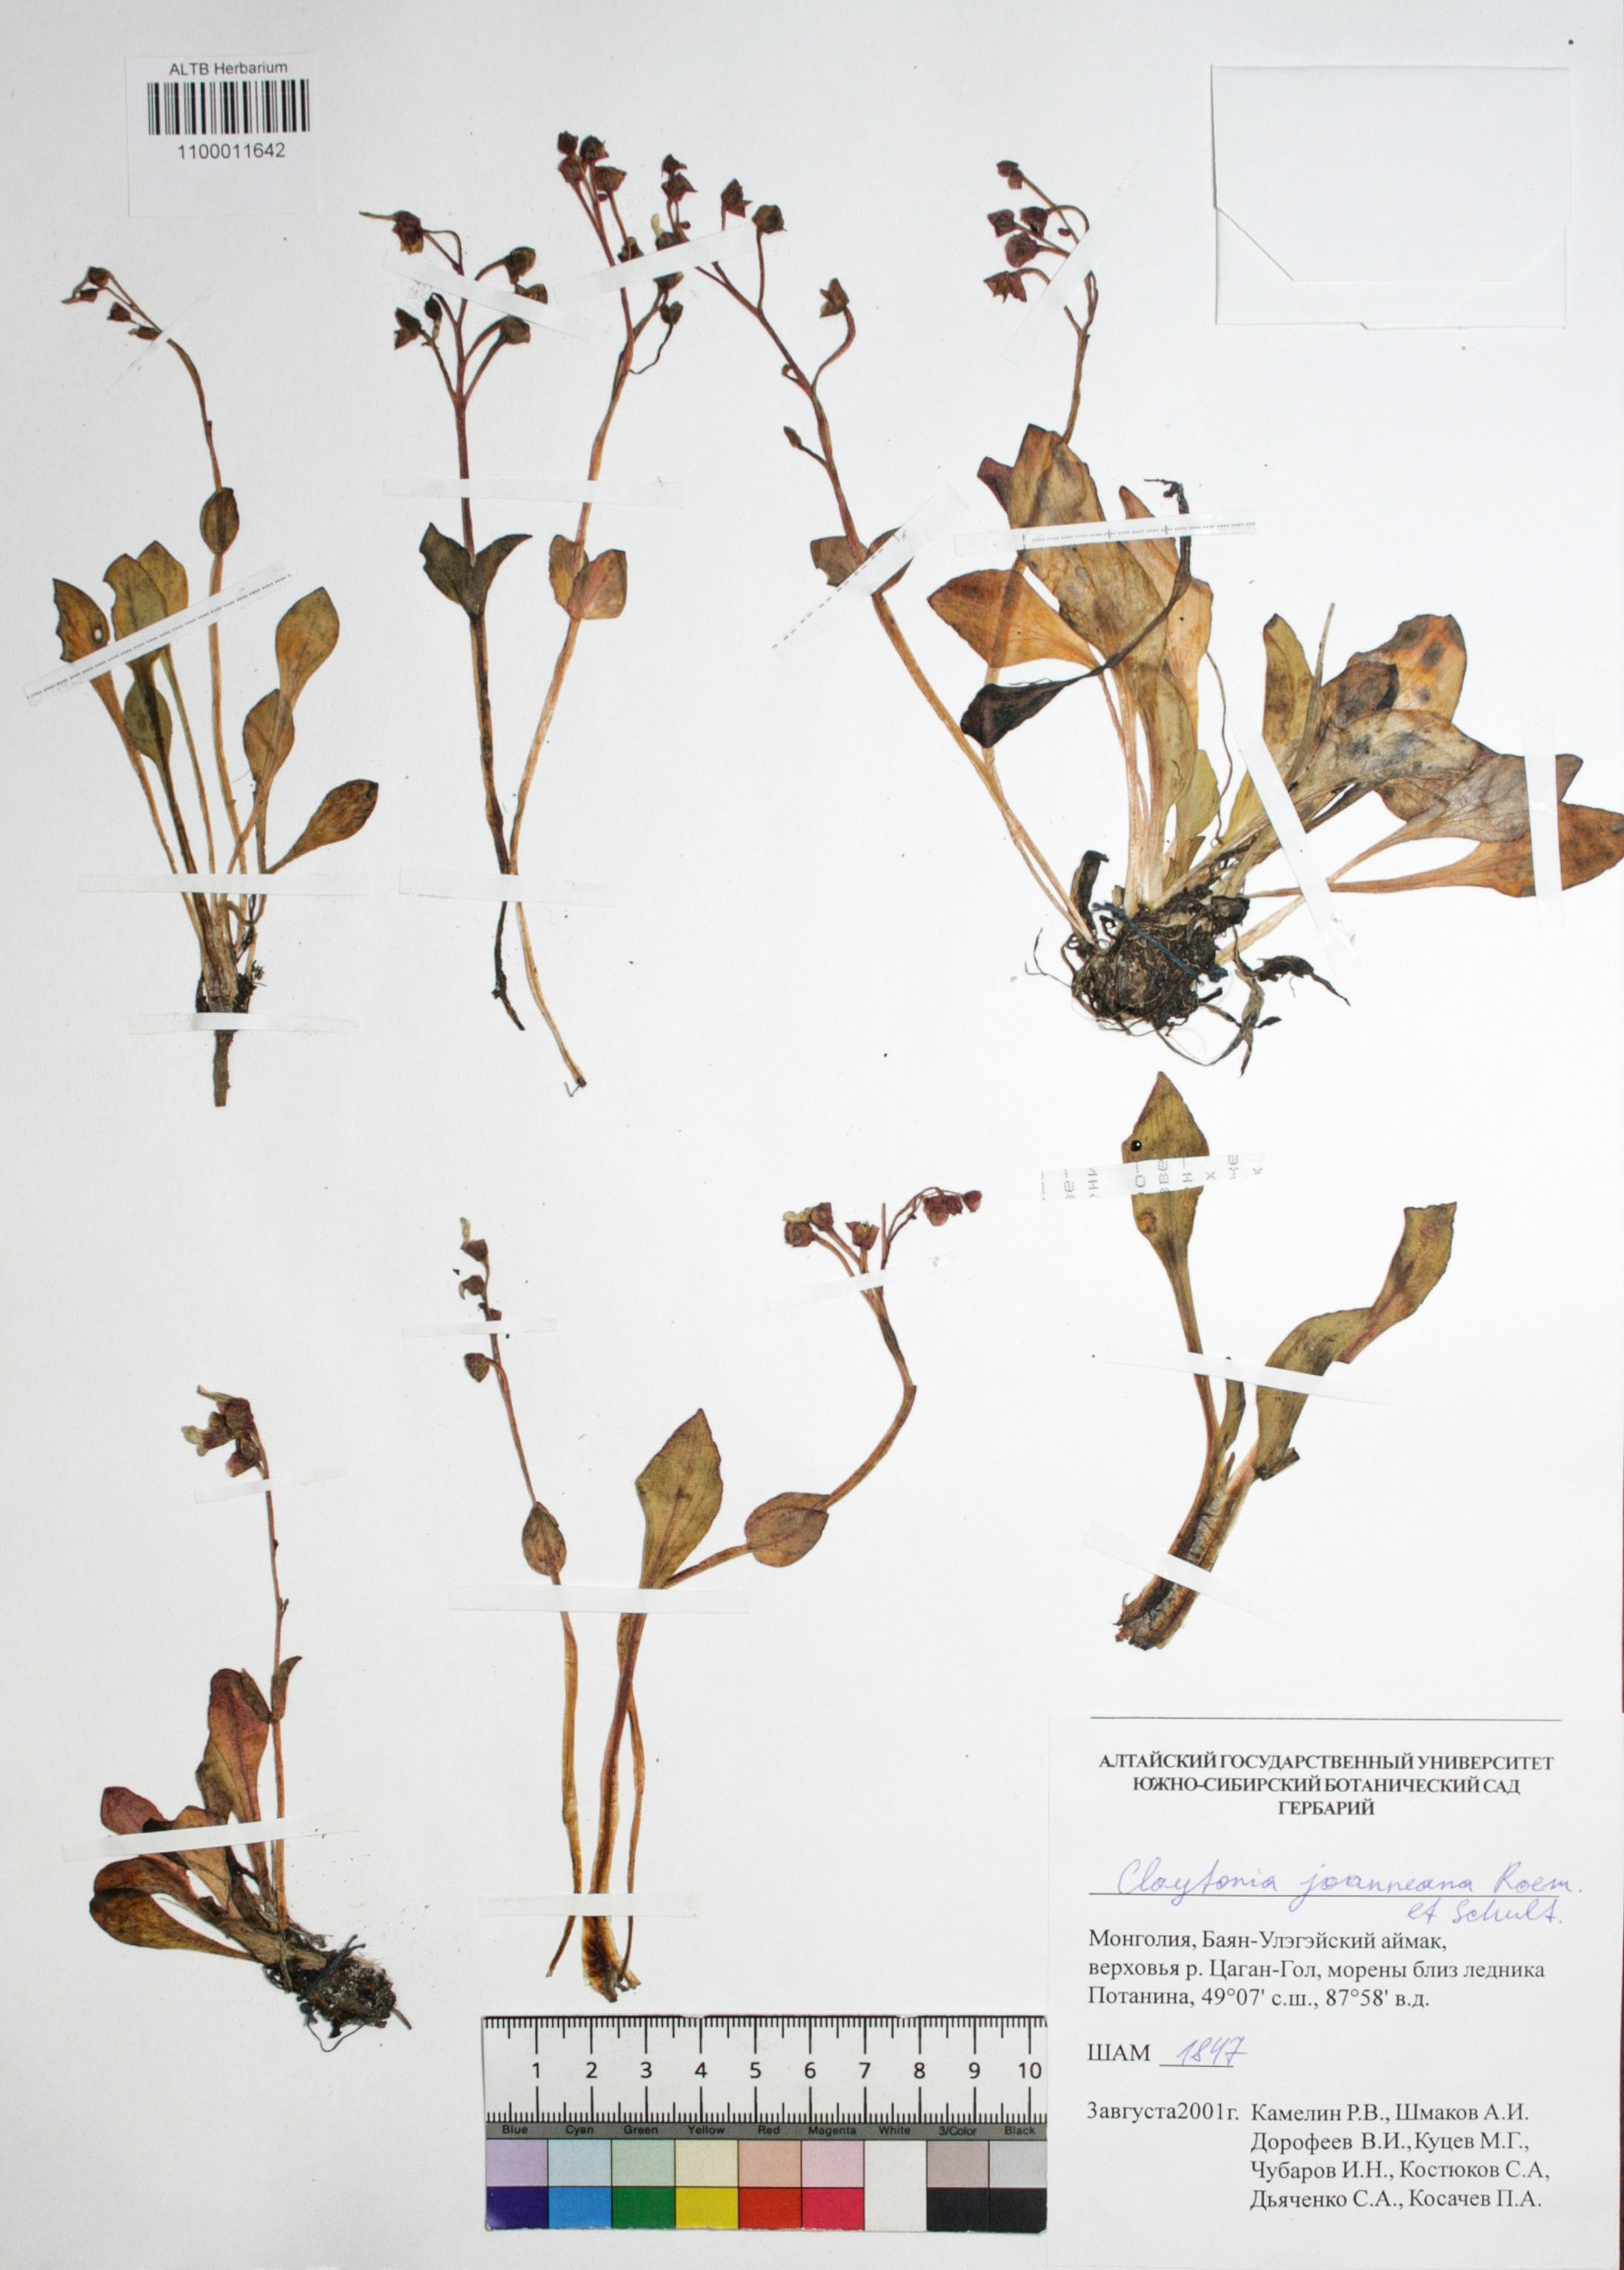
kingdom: Plantae
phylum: Tracheophyta
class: Magnoliopsida
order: Caryophyllales
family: Montiaceae
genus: Claytonia
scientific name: Claytonia joanneana
